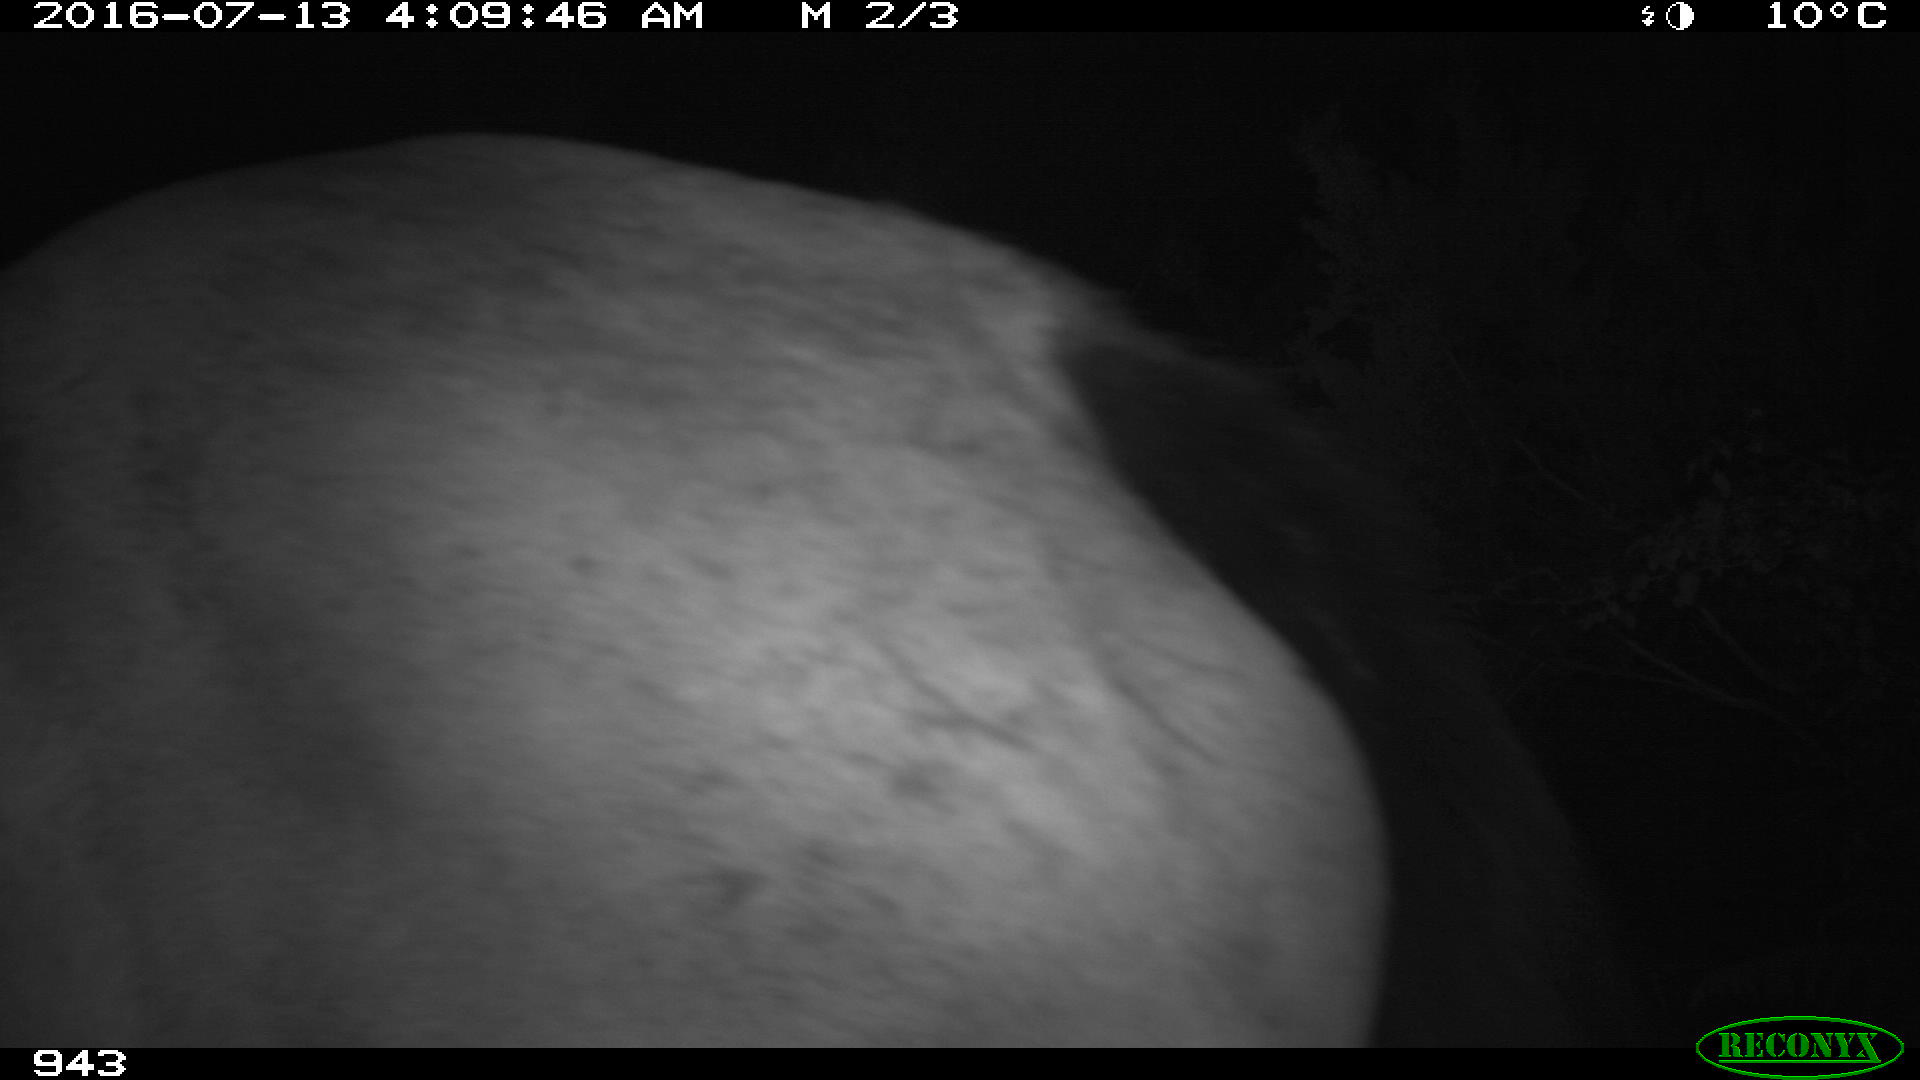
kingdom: Animalia
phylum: Chordata
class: Mammalia
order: Perissodactyla
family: Equidae
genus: Equus
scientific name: Equus caballus
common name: Horse
